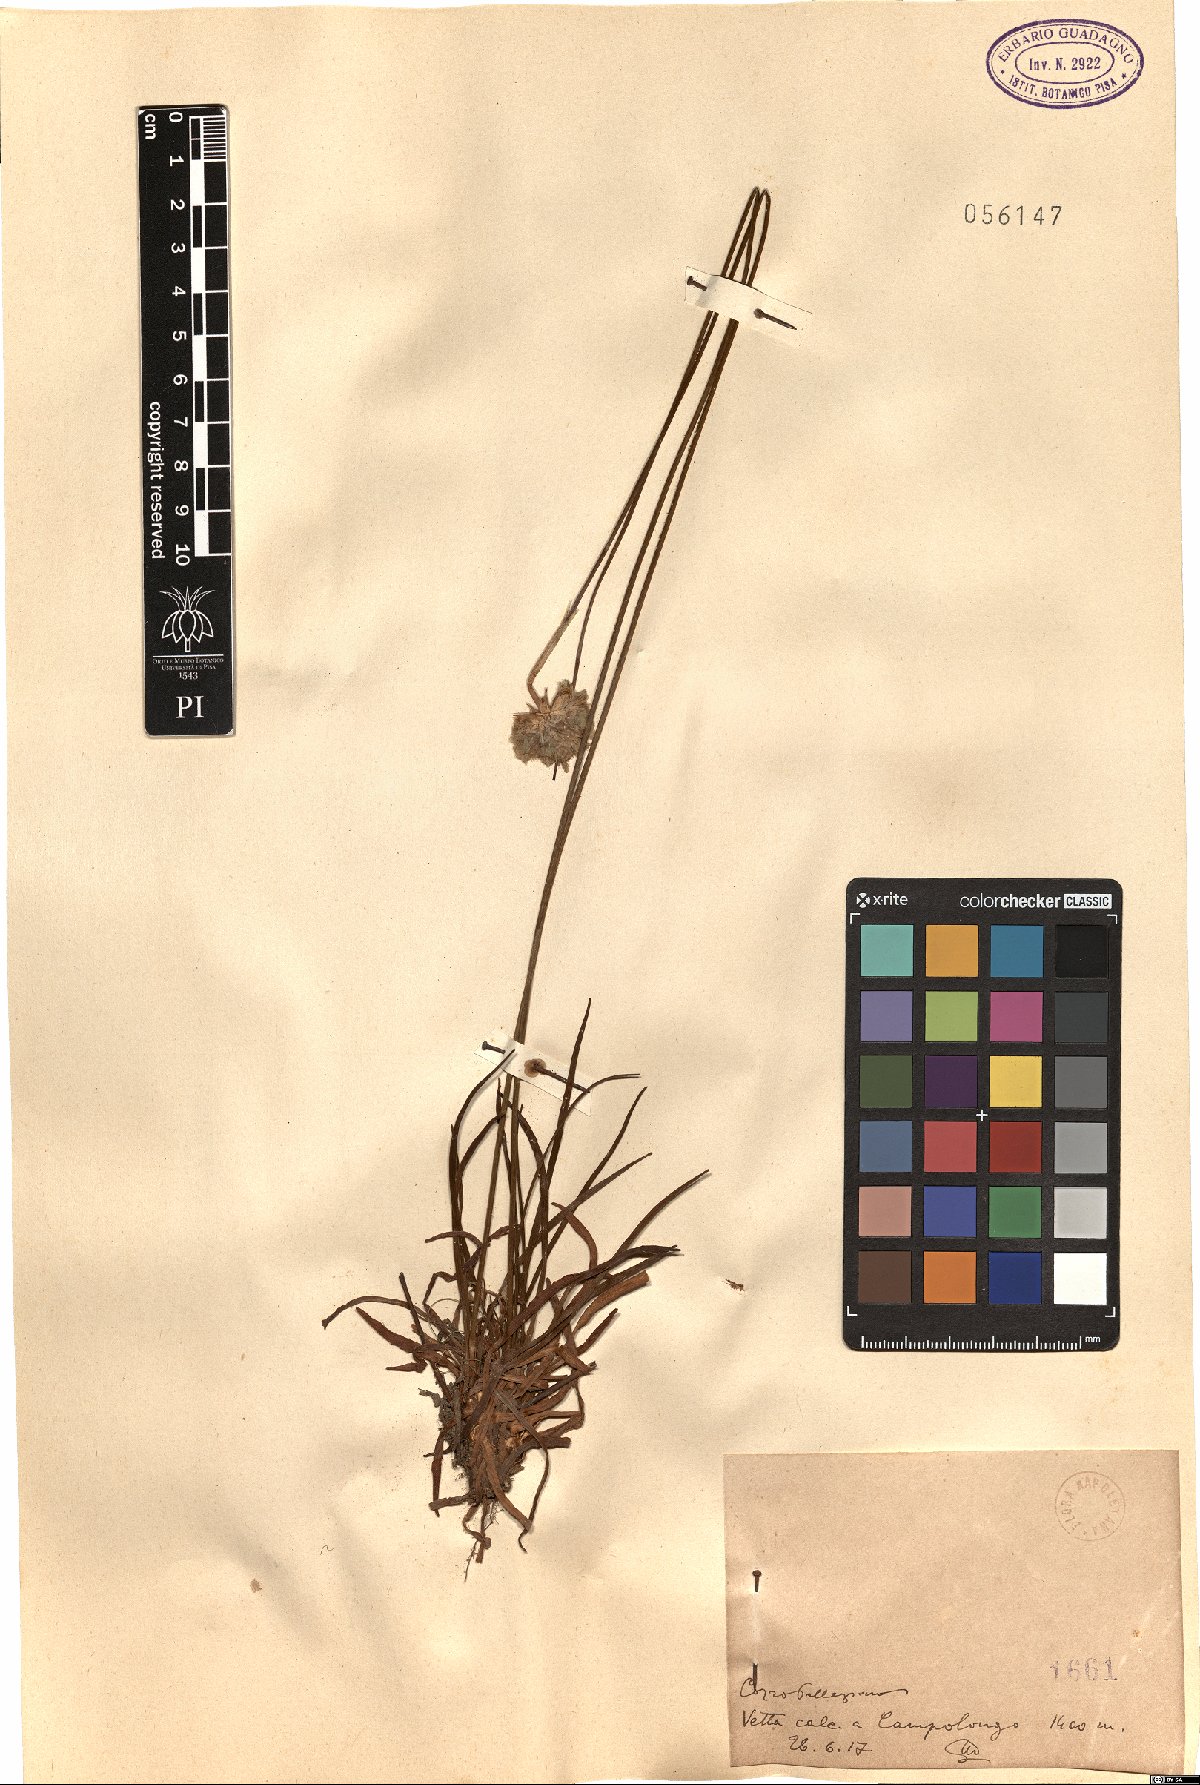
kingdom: Plantae
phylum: Tracheophyta
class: Magnoliopsida
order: Caryophyllales
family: Plumbaginaceae
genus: Armeria
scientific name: Armeria
